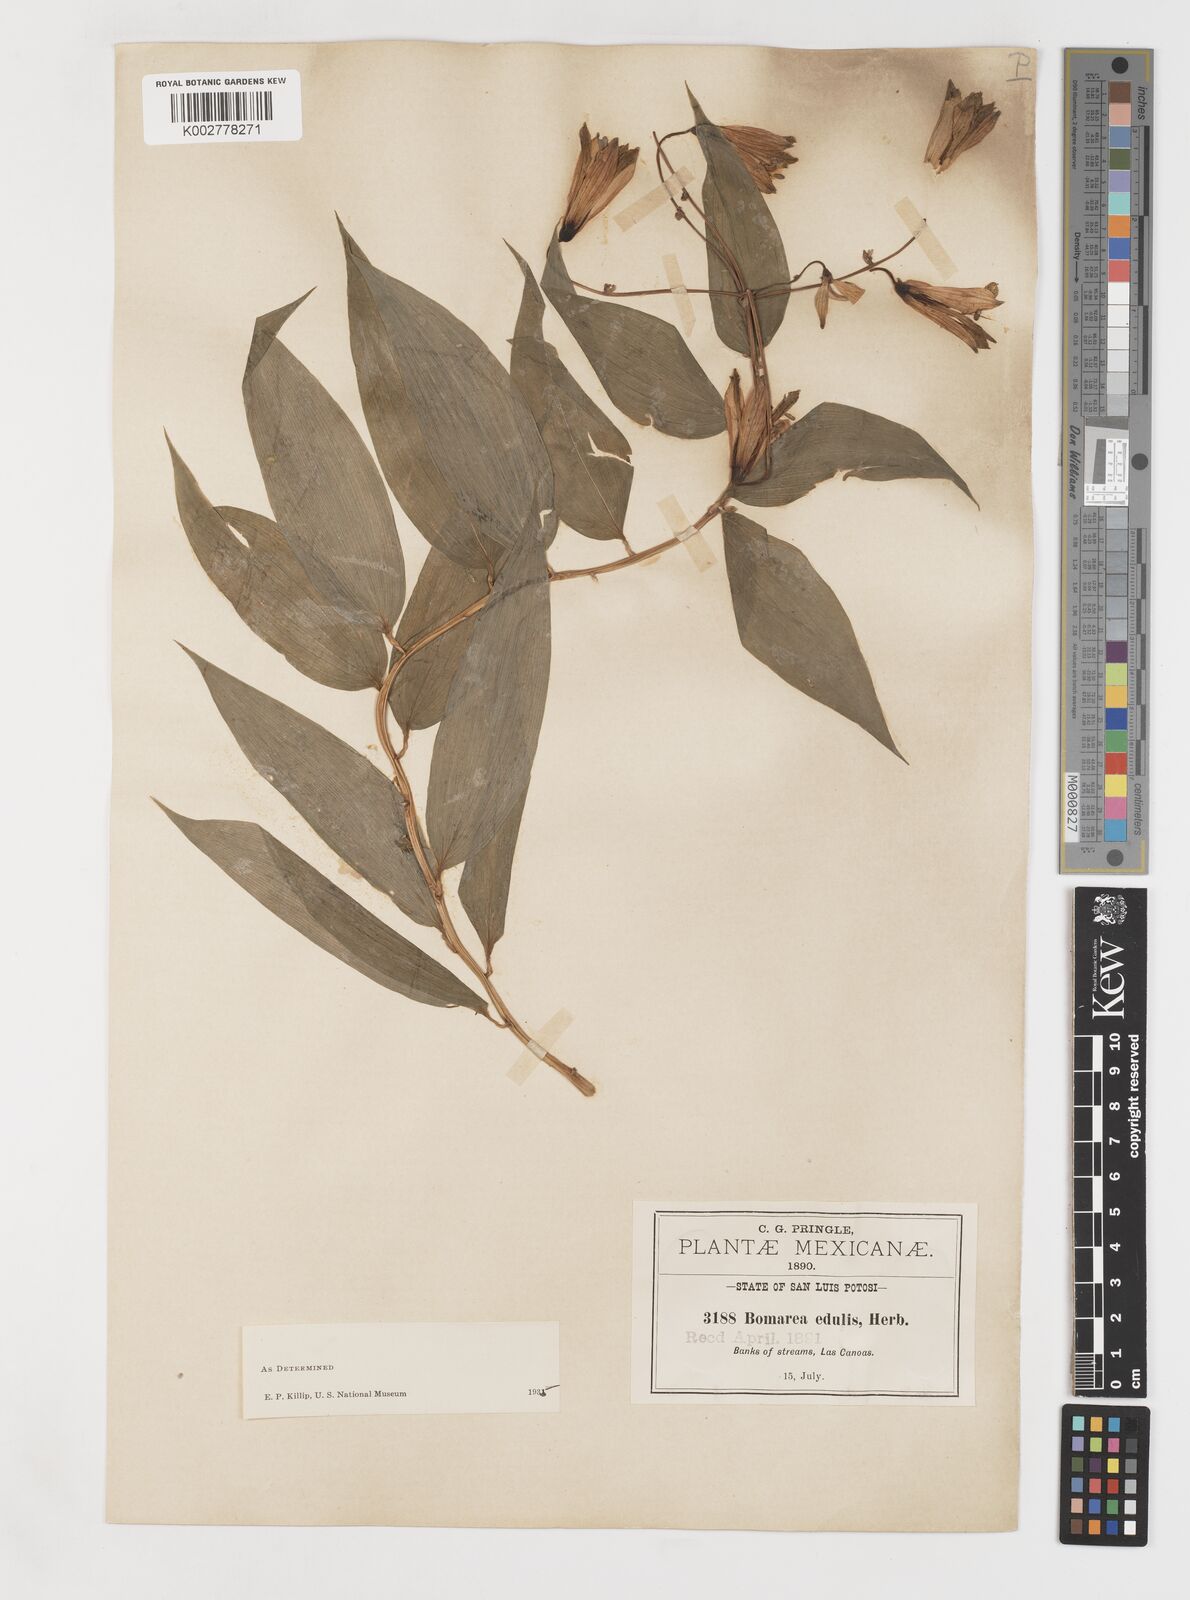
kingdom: Plantae
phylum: Tracheophyta
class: Liliopsida
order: Liliales
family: Alstroemeriaceae
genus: Bomarea
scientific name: Bomarea edulis
